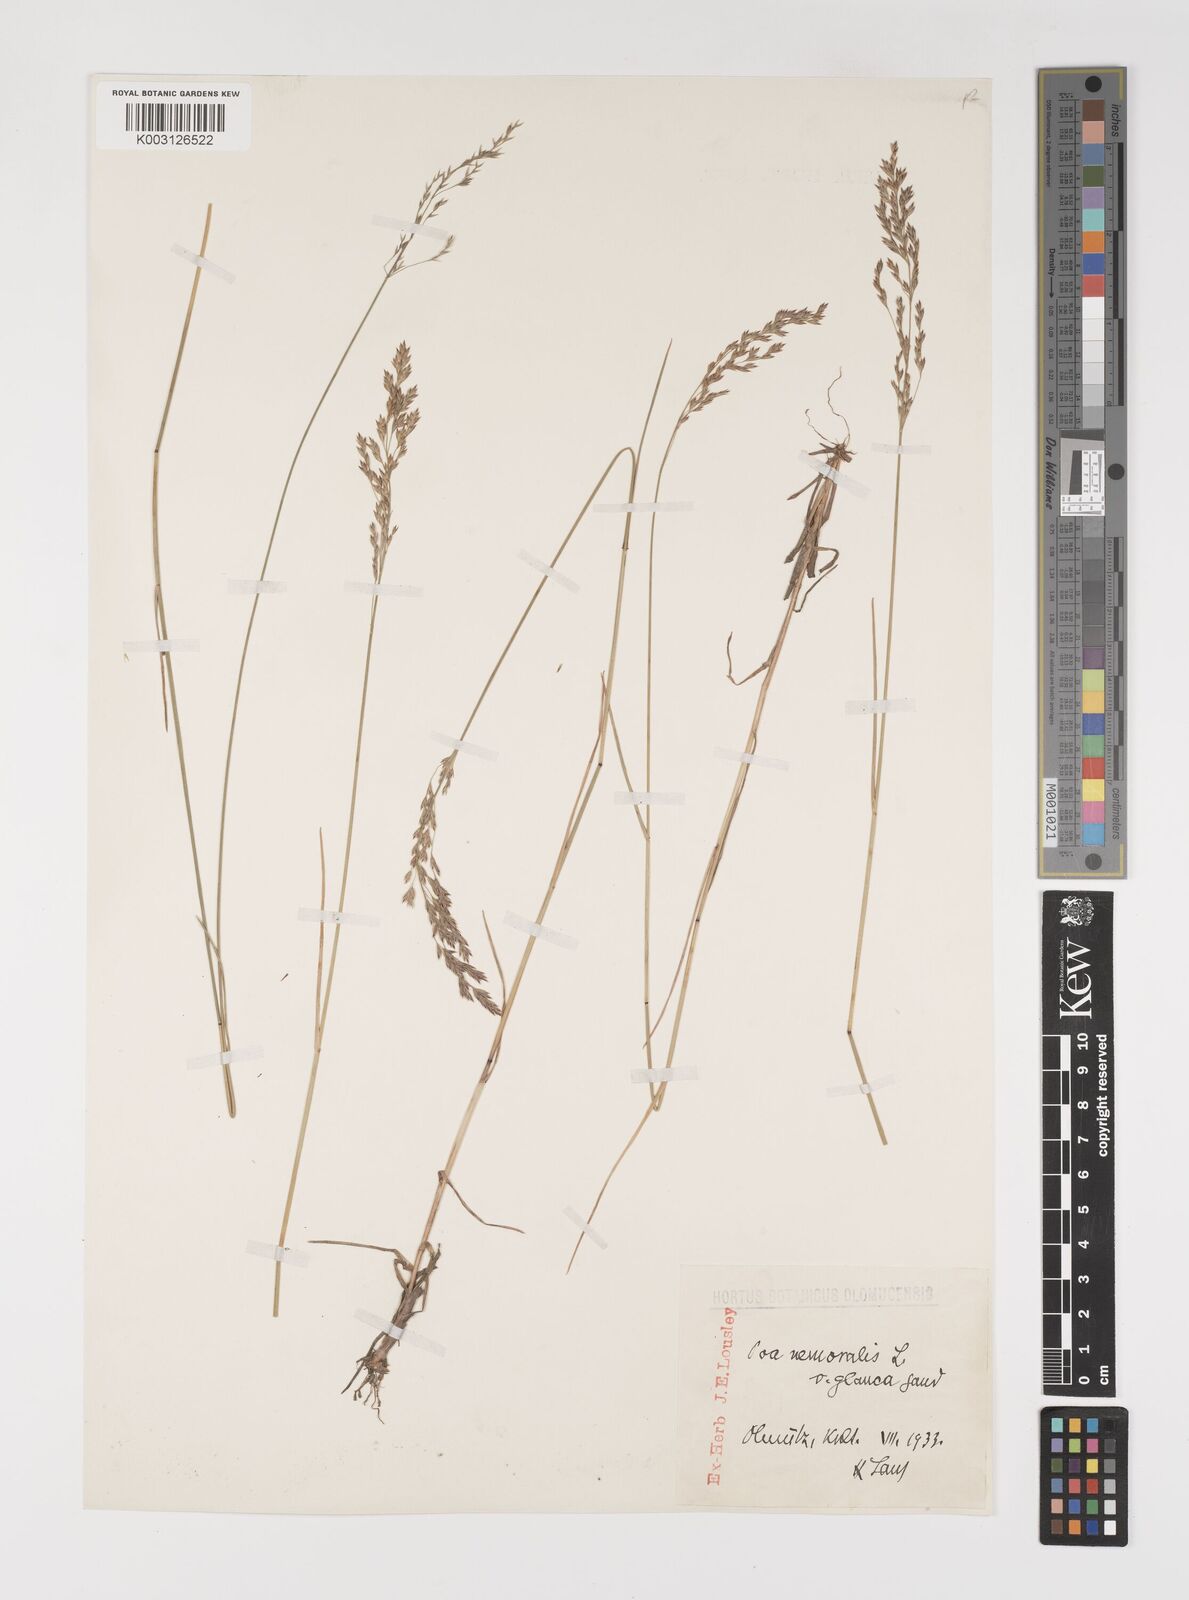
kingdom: Plantae
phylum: Tracheophyta
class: Liliopsida
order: Poales
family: Poaceae
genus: Poa
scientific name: Poa nemoralis
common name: Wood bluegrass
